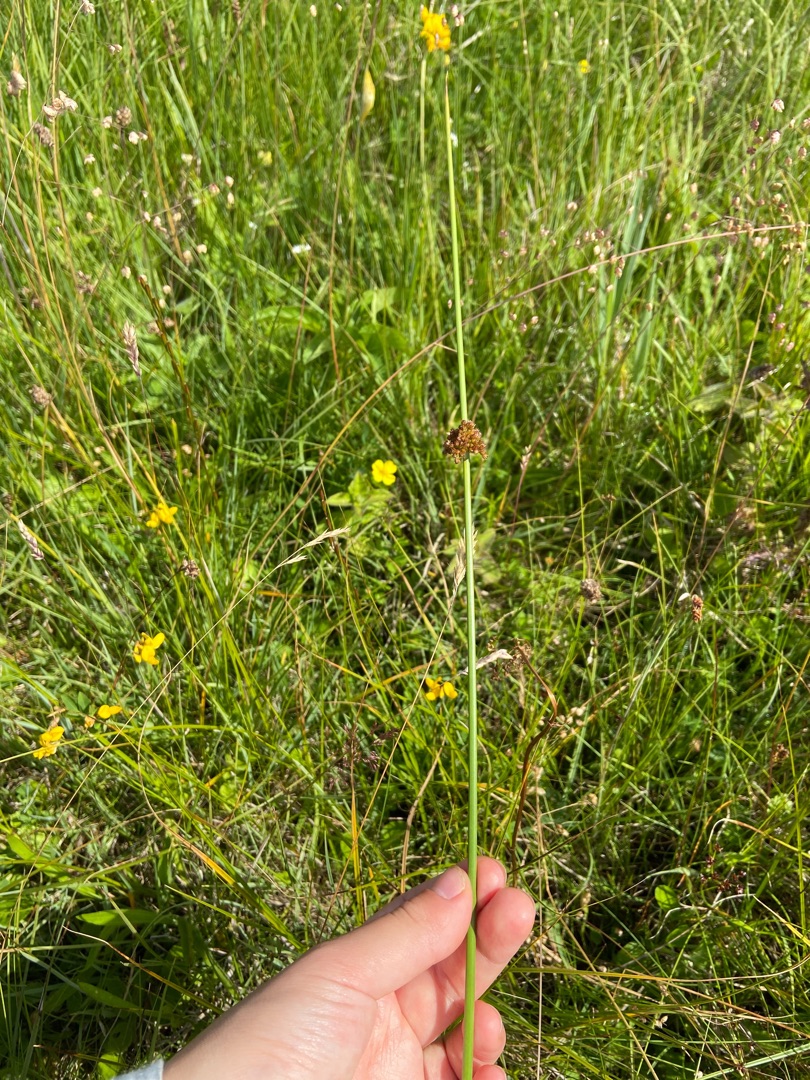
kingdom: Plantae
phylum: Tracheophyta
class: Liliopsida
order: Poales
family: Juncaceae
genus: Juncus
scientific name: Juncus effusus
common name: Lyse-siv
